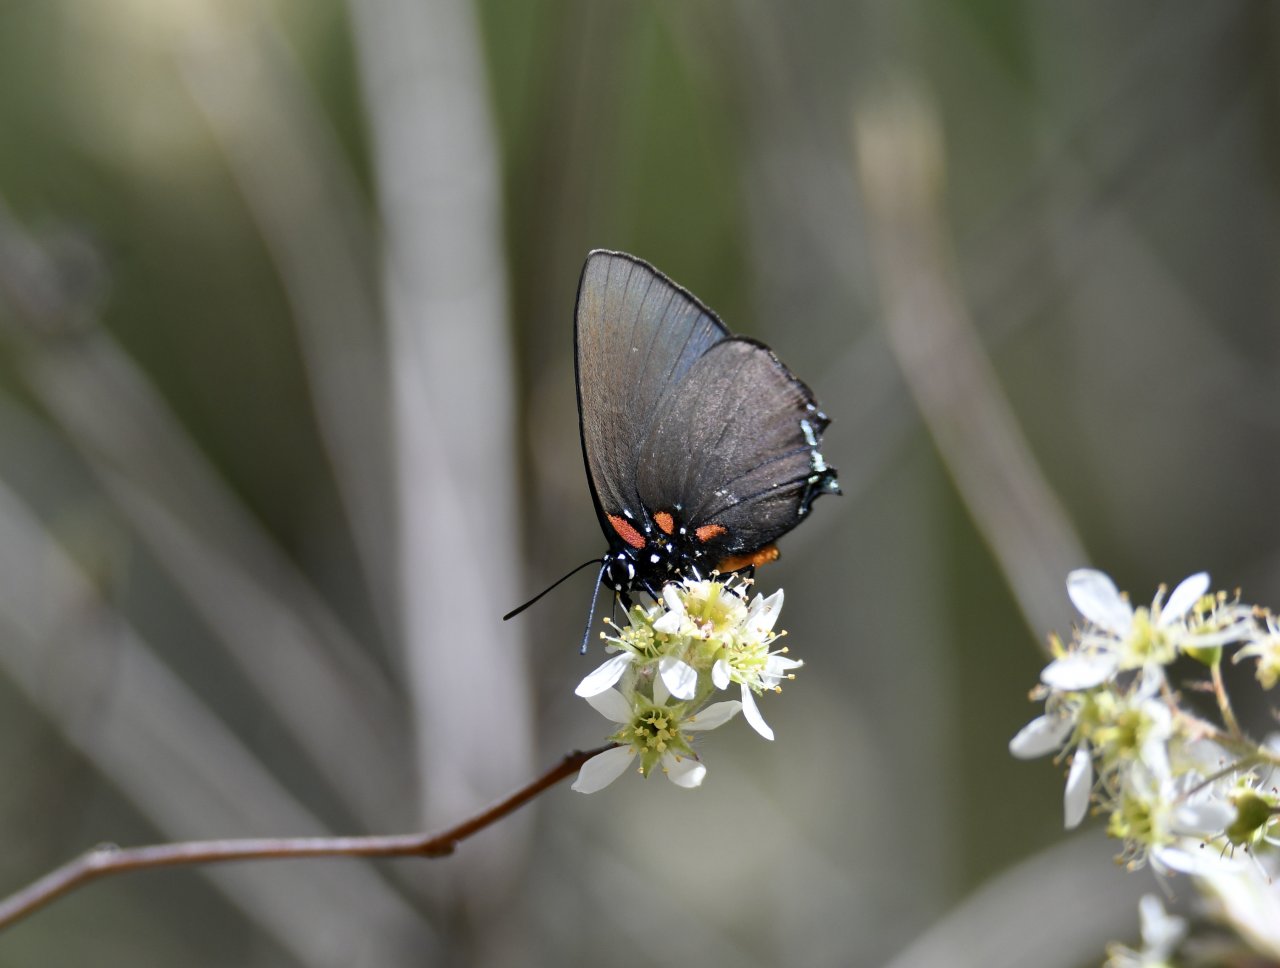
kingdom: Animalia
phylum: Arthropoda
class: Insecta
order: Lepidoptera
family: Lycaenidae
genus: Atlides
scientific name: Atlides halesus
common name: Great Purple Hairstreak
